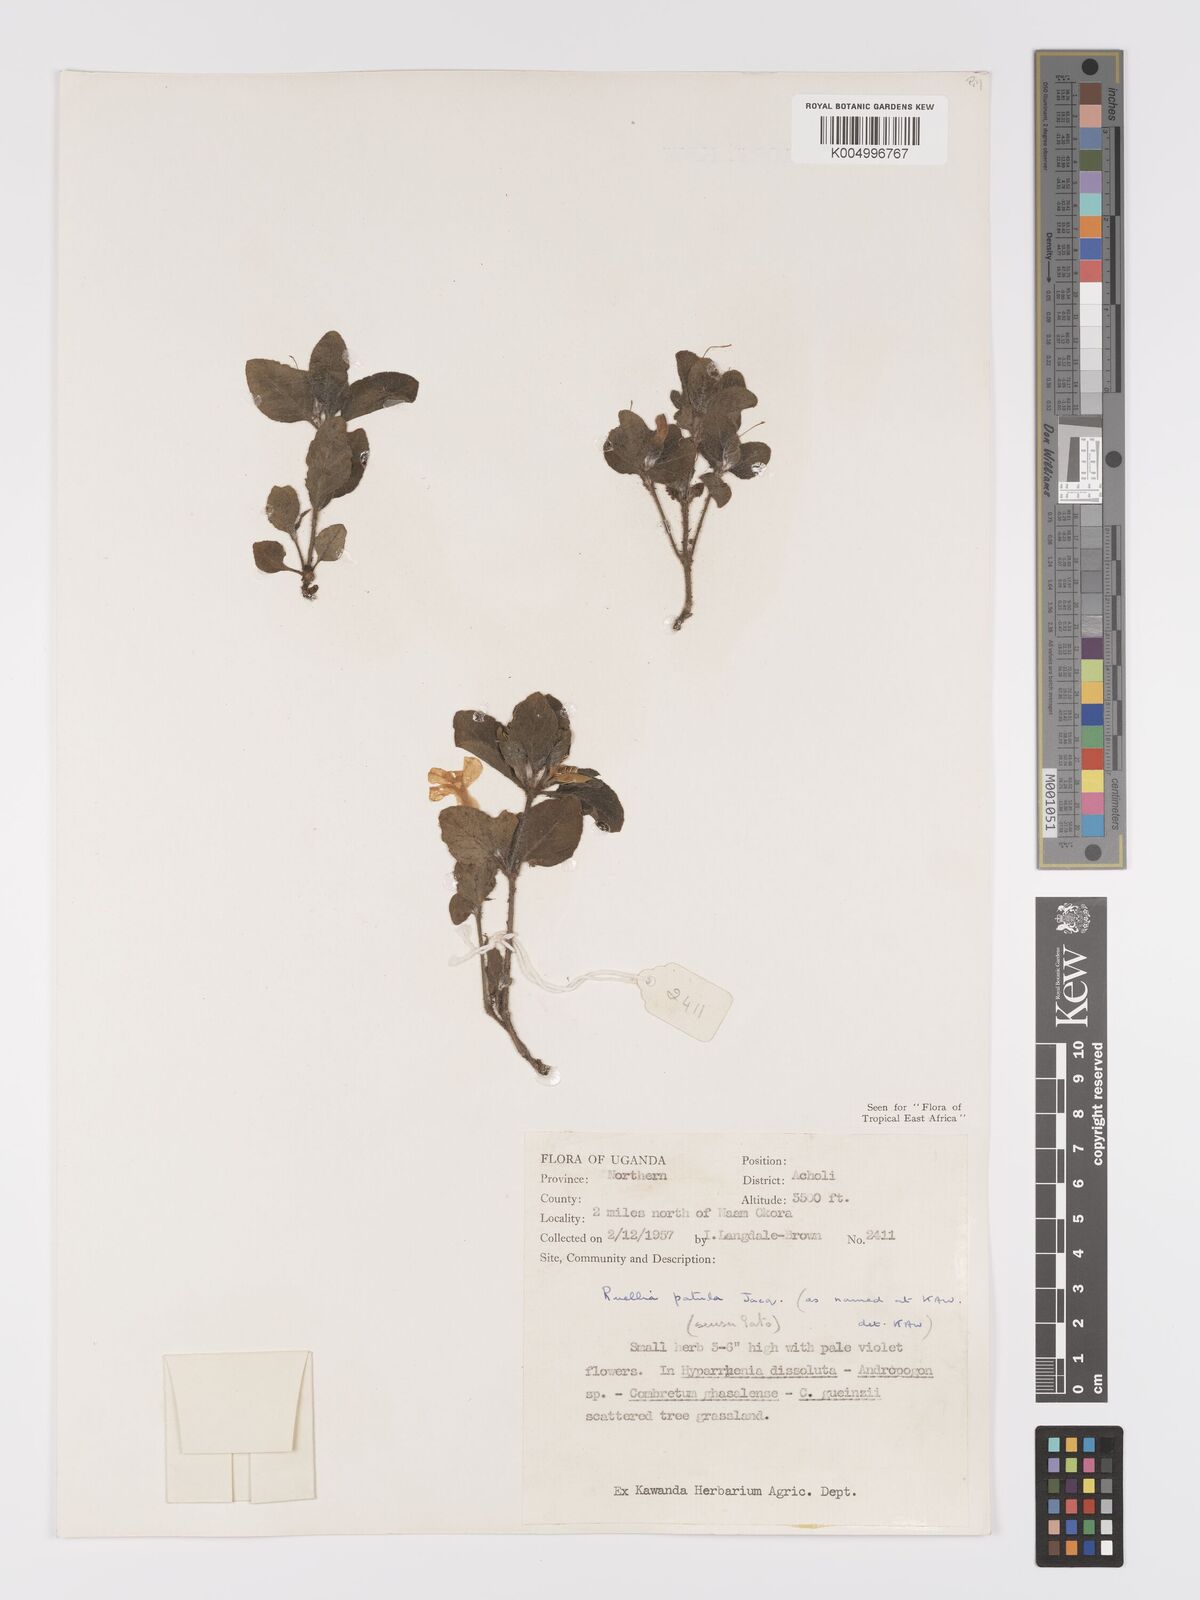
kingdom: Plantae
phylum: Tracheophyta
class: Magnoliopsida
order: Lamiales
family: Acanthaceae
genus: Ruellia
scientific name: Ruellia patula
